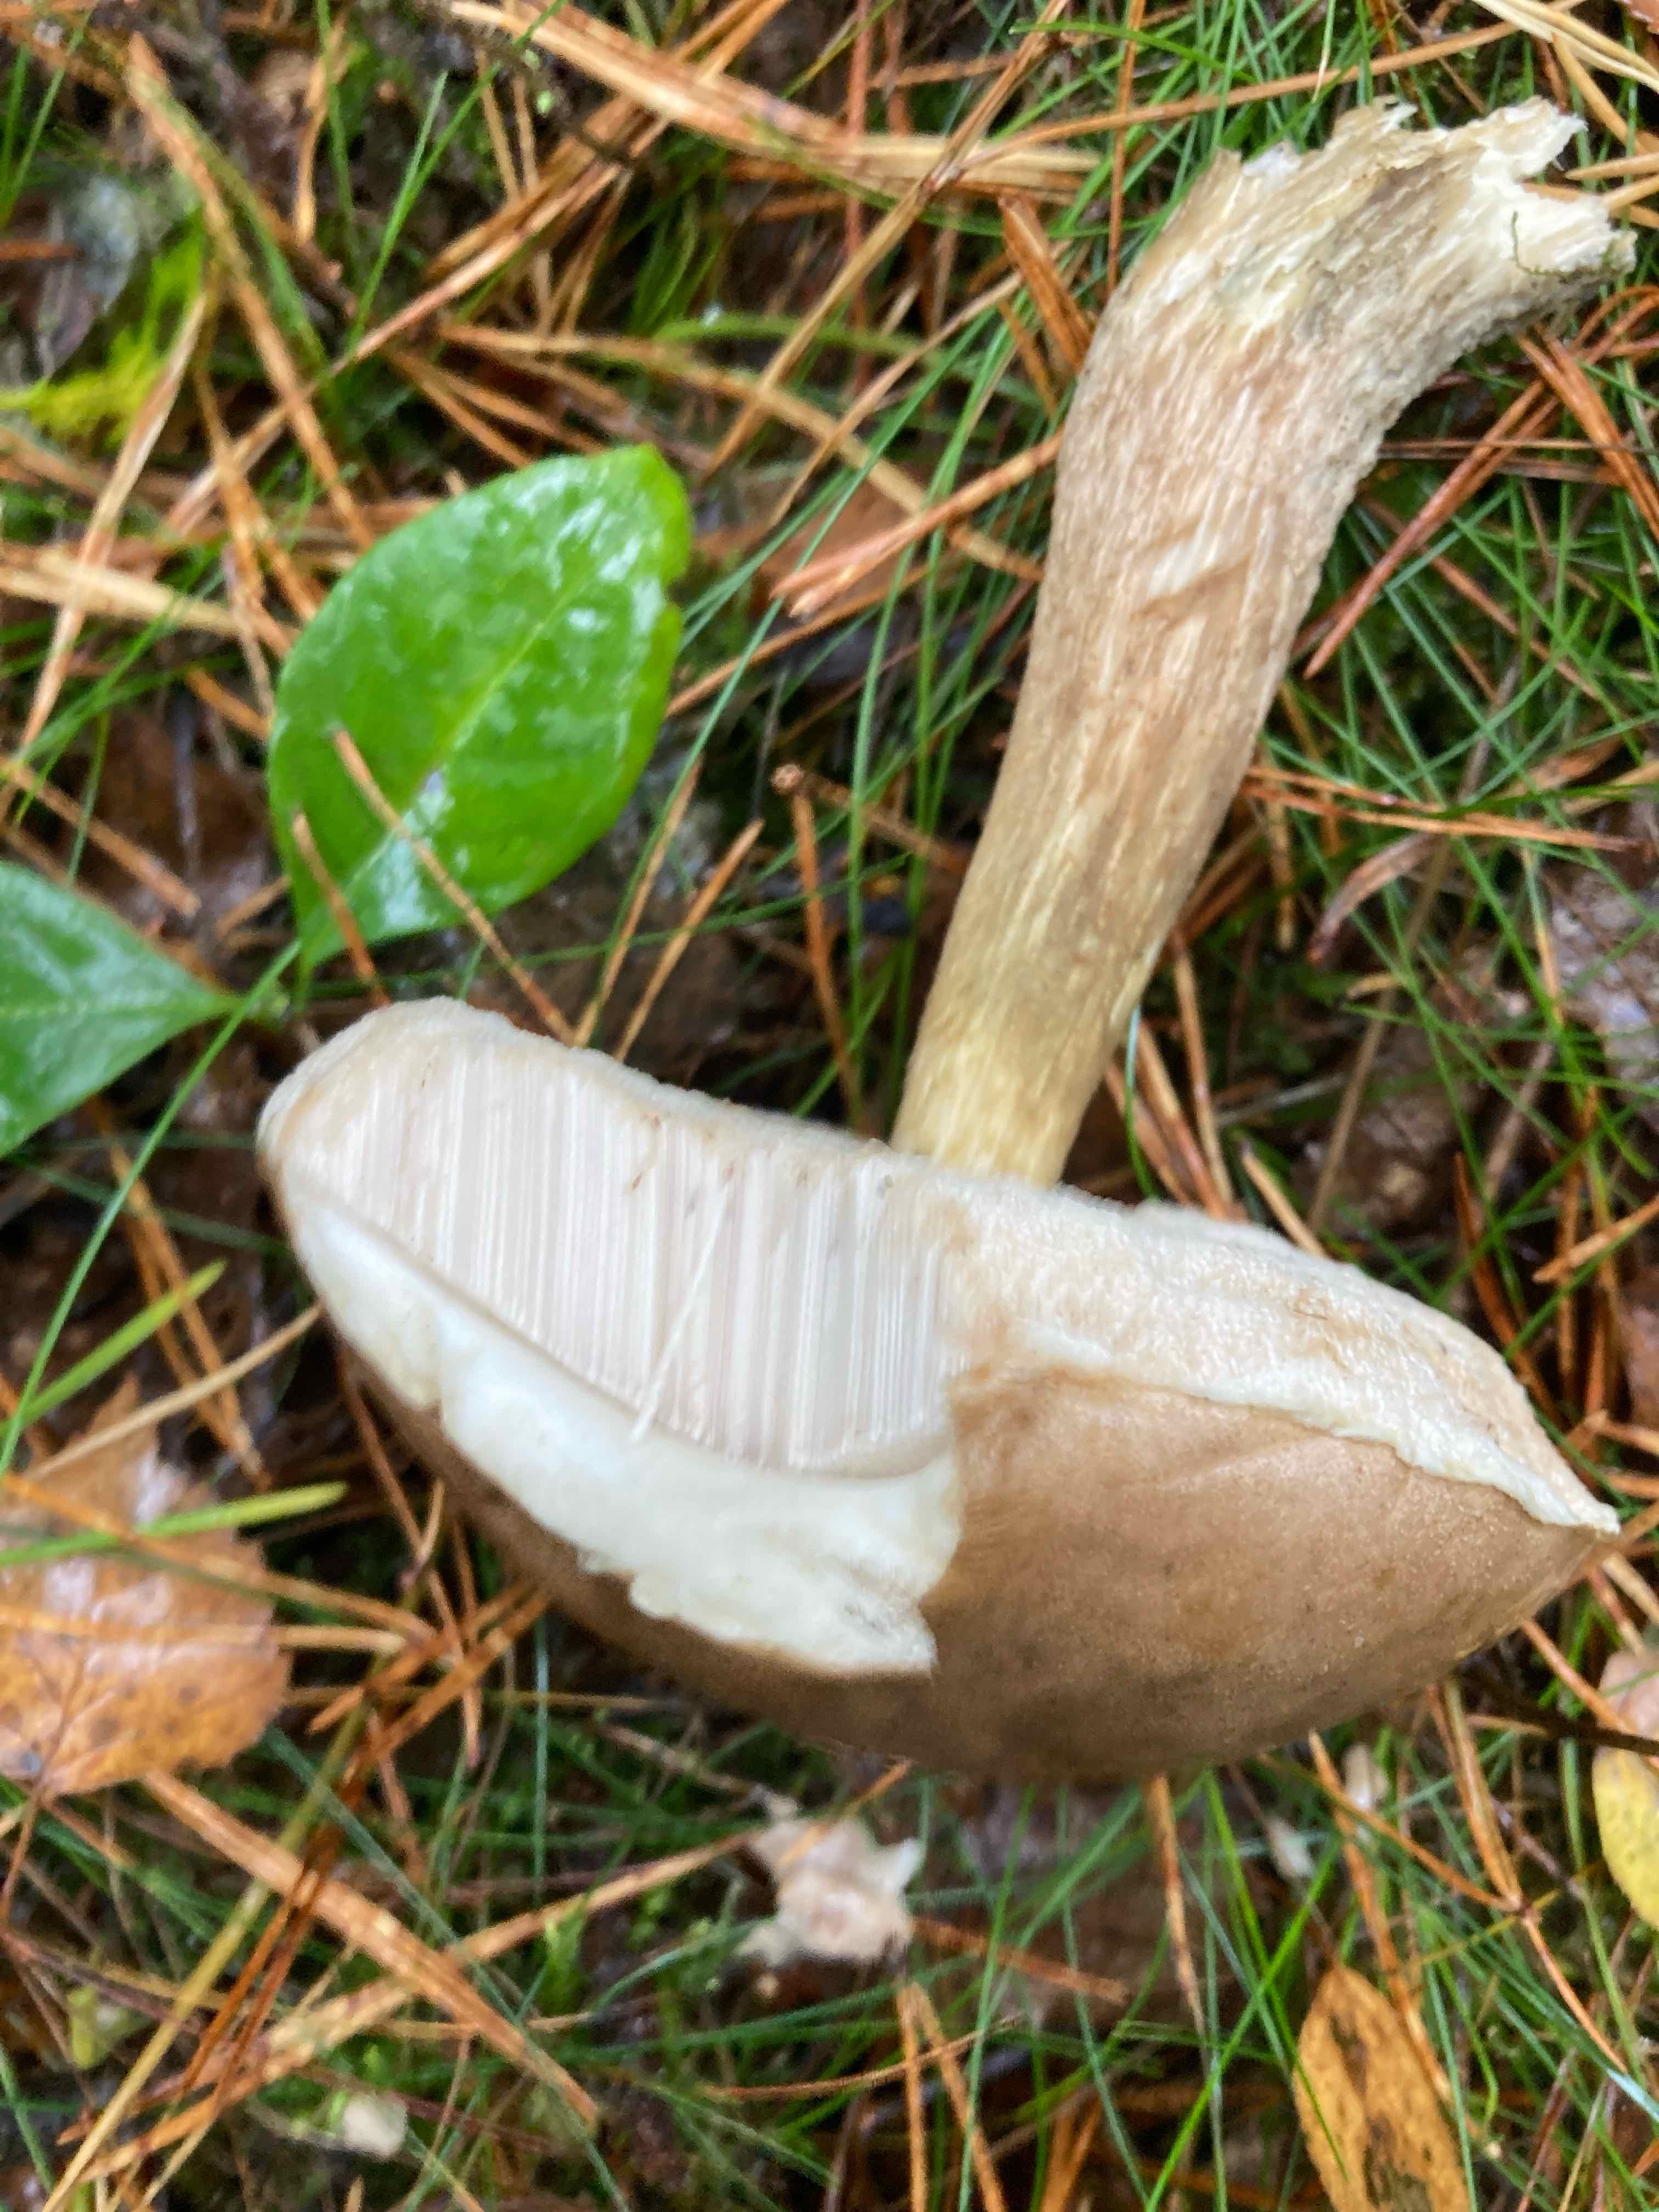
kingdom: Fungi
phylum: Basidiomycota
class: Agaricomycetes
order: Boletales
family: Boletaceae
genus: Leccinum
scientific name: Leccinum scabrum
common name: brun skælrørhat
